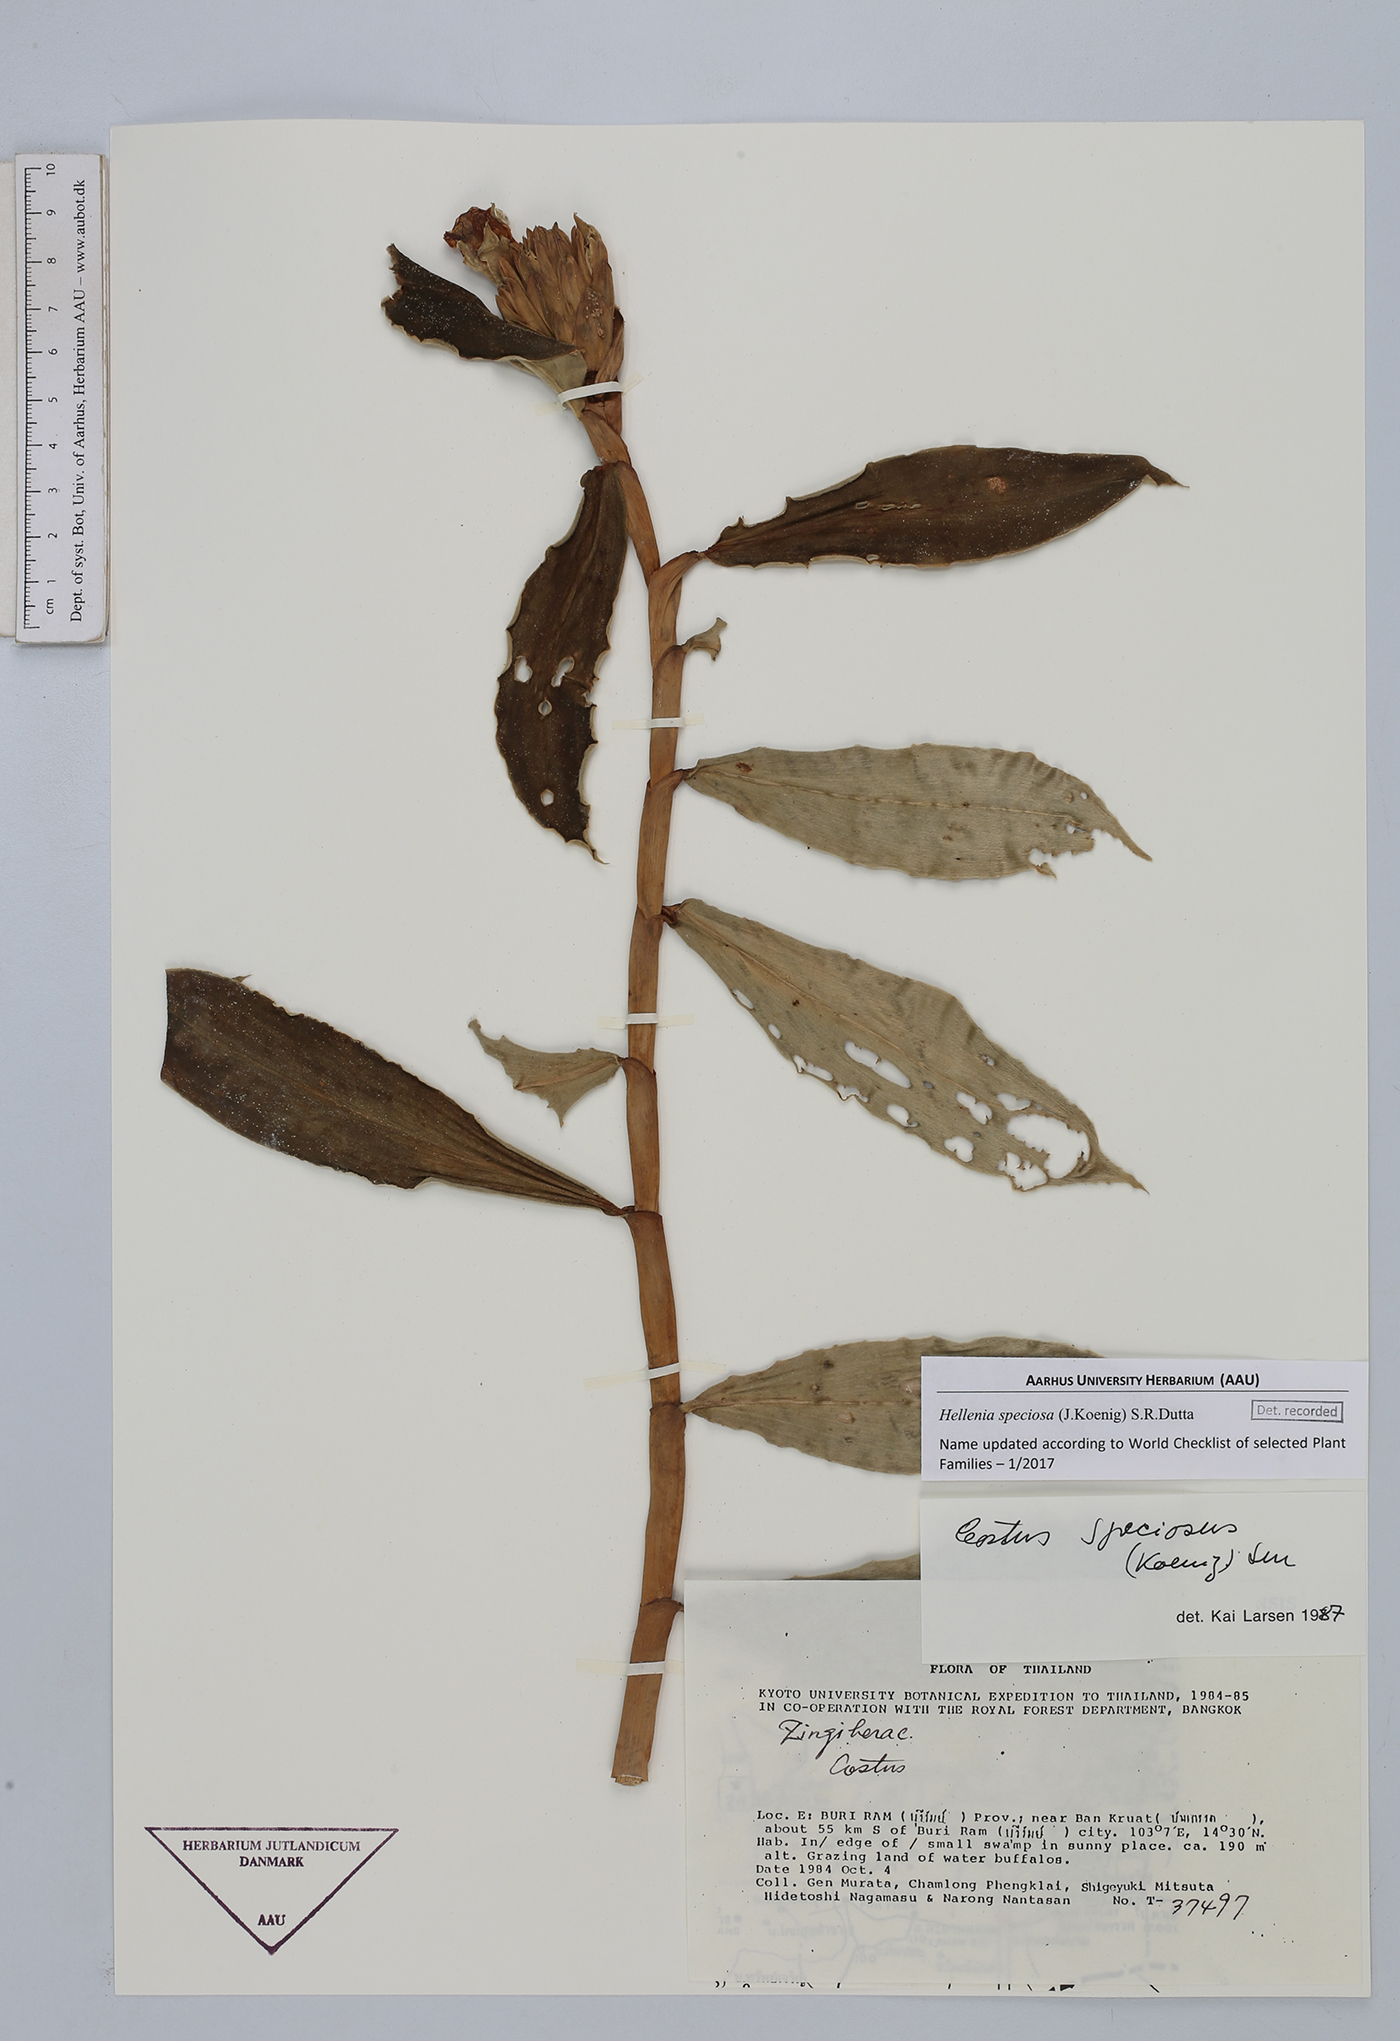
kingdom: Plantae
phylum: Tracheophyta
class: Liliopsida
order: Zingiberales
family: Costaceae
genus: Hellenia
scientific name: Hellenia speciosa
